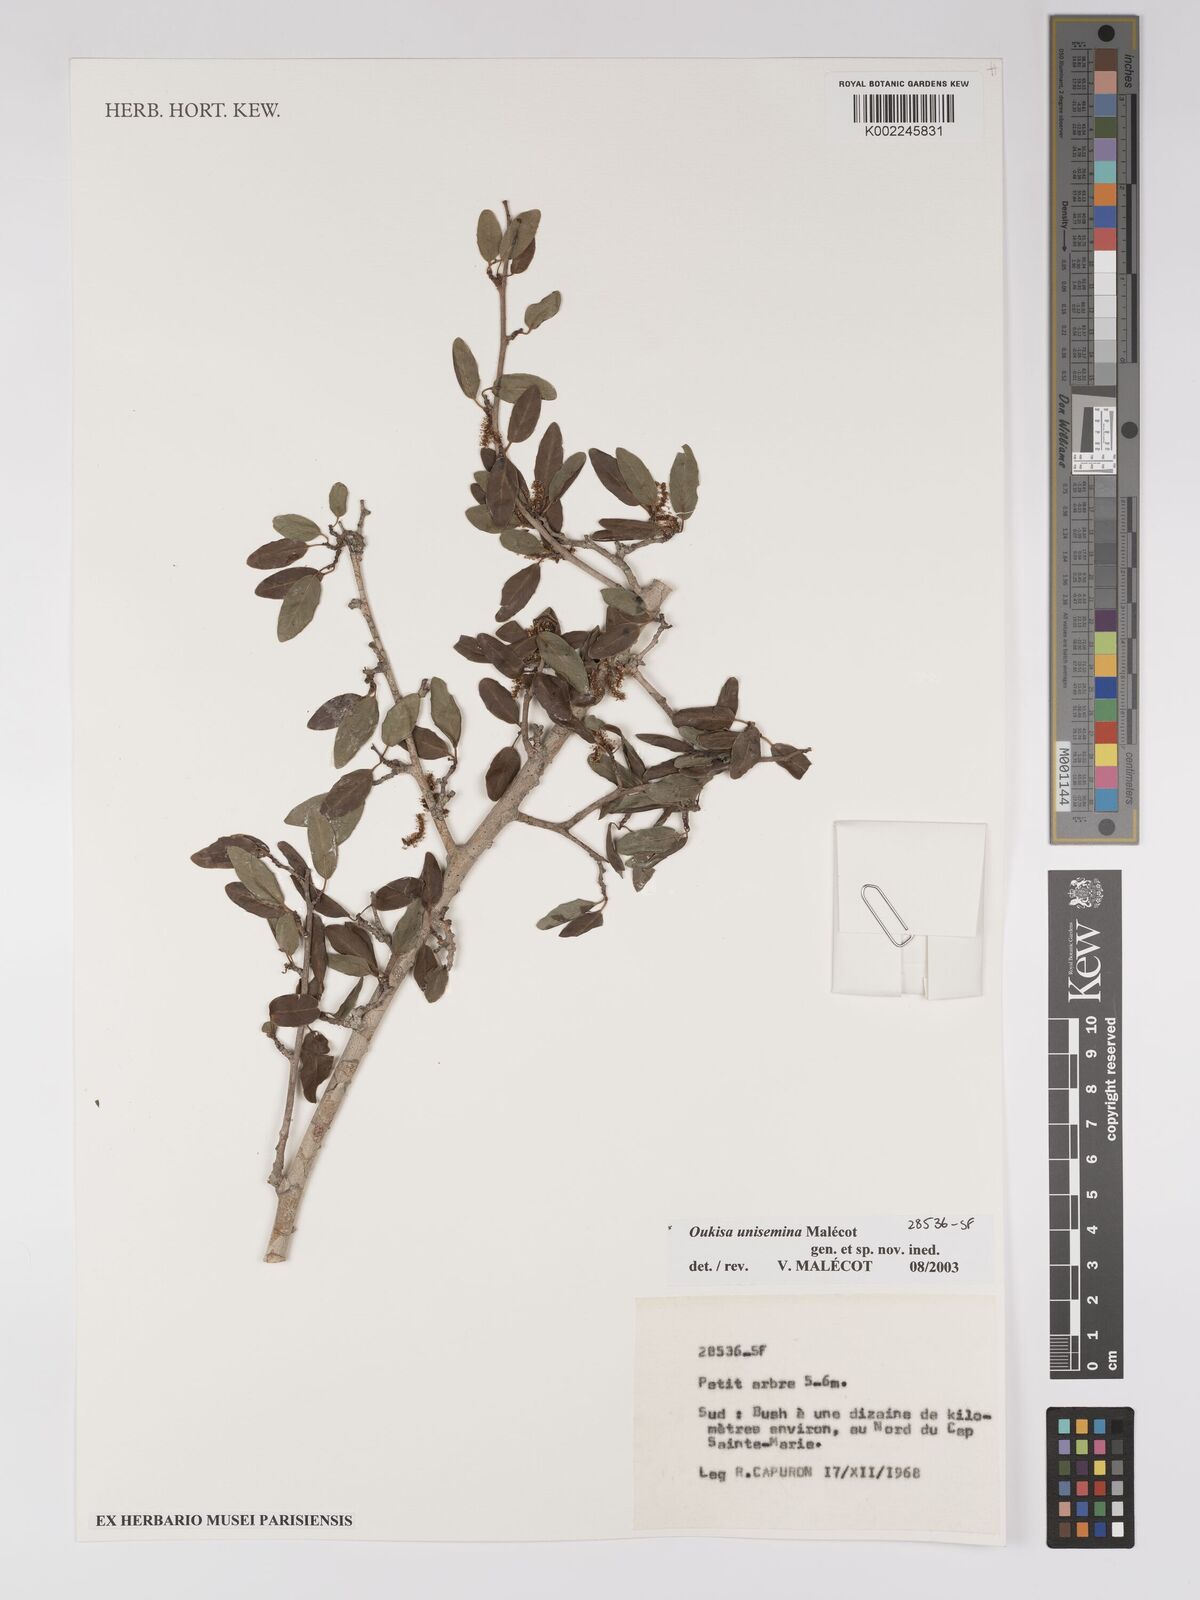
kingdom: Plantae
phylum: Tracheophyta
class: Magnoliopsida
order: Malpighiales
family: Euphorbiaceae
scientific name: Euphorbiaceae
